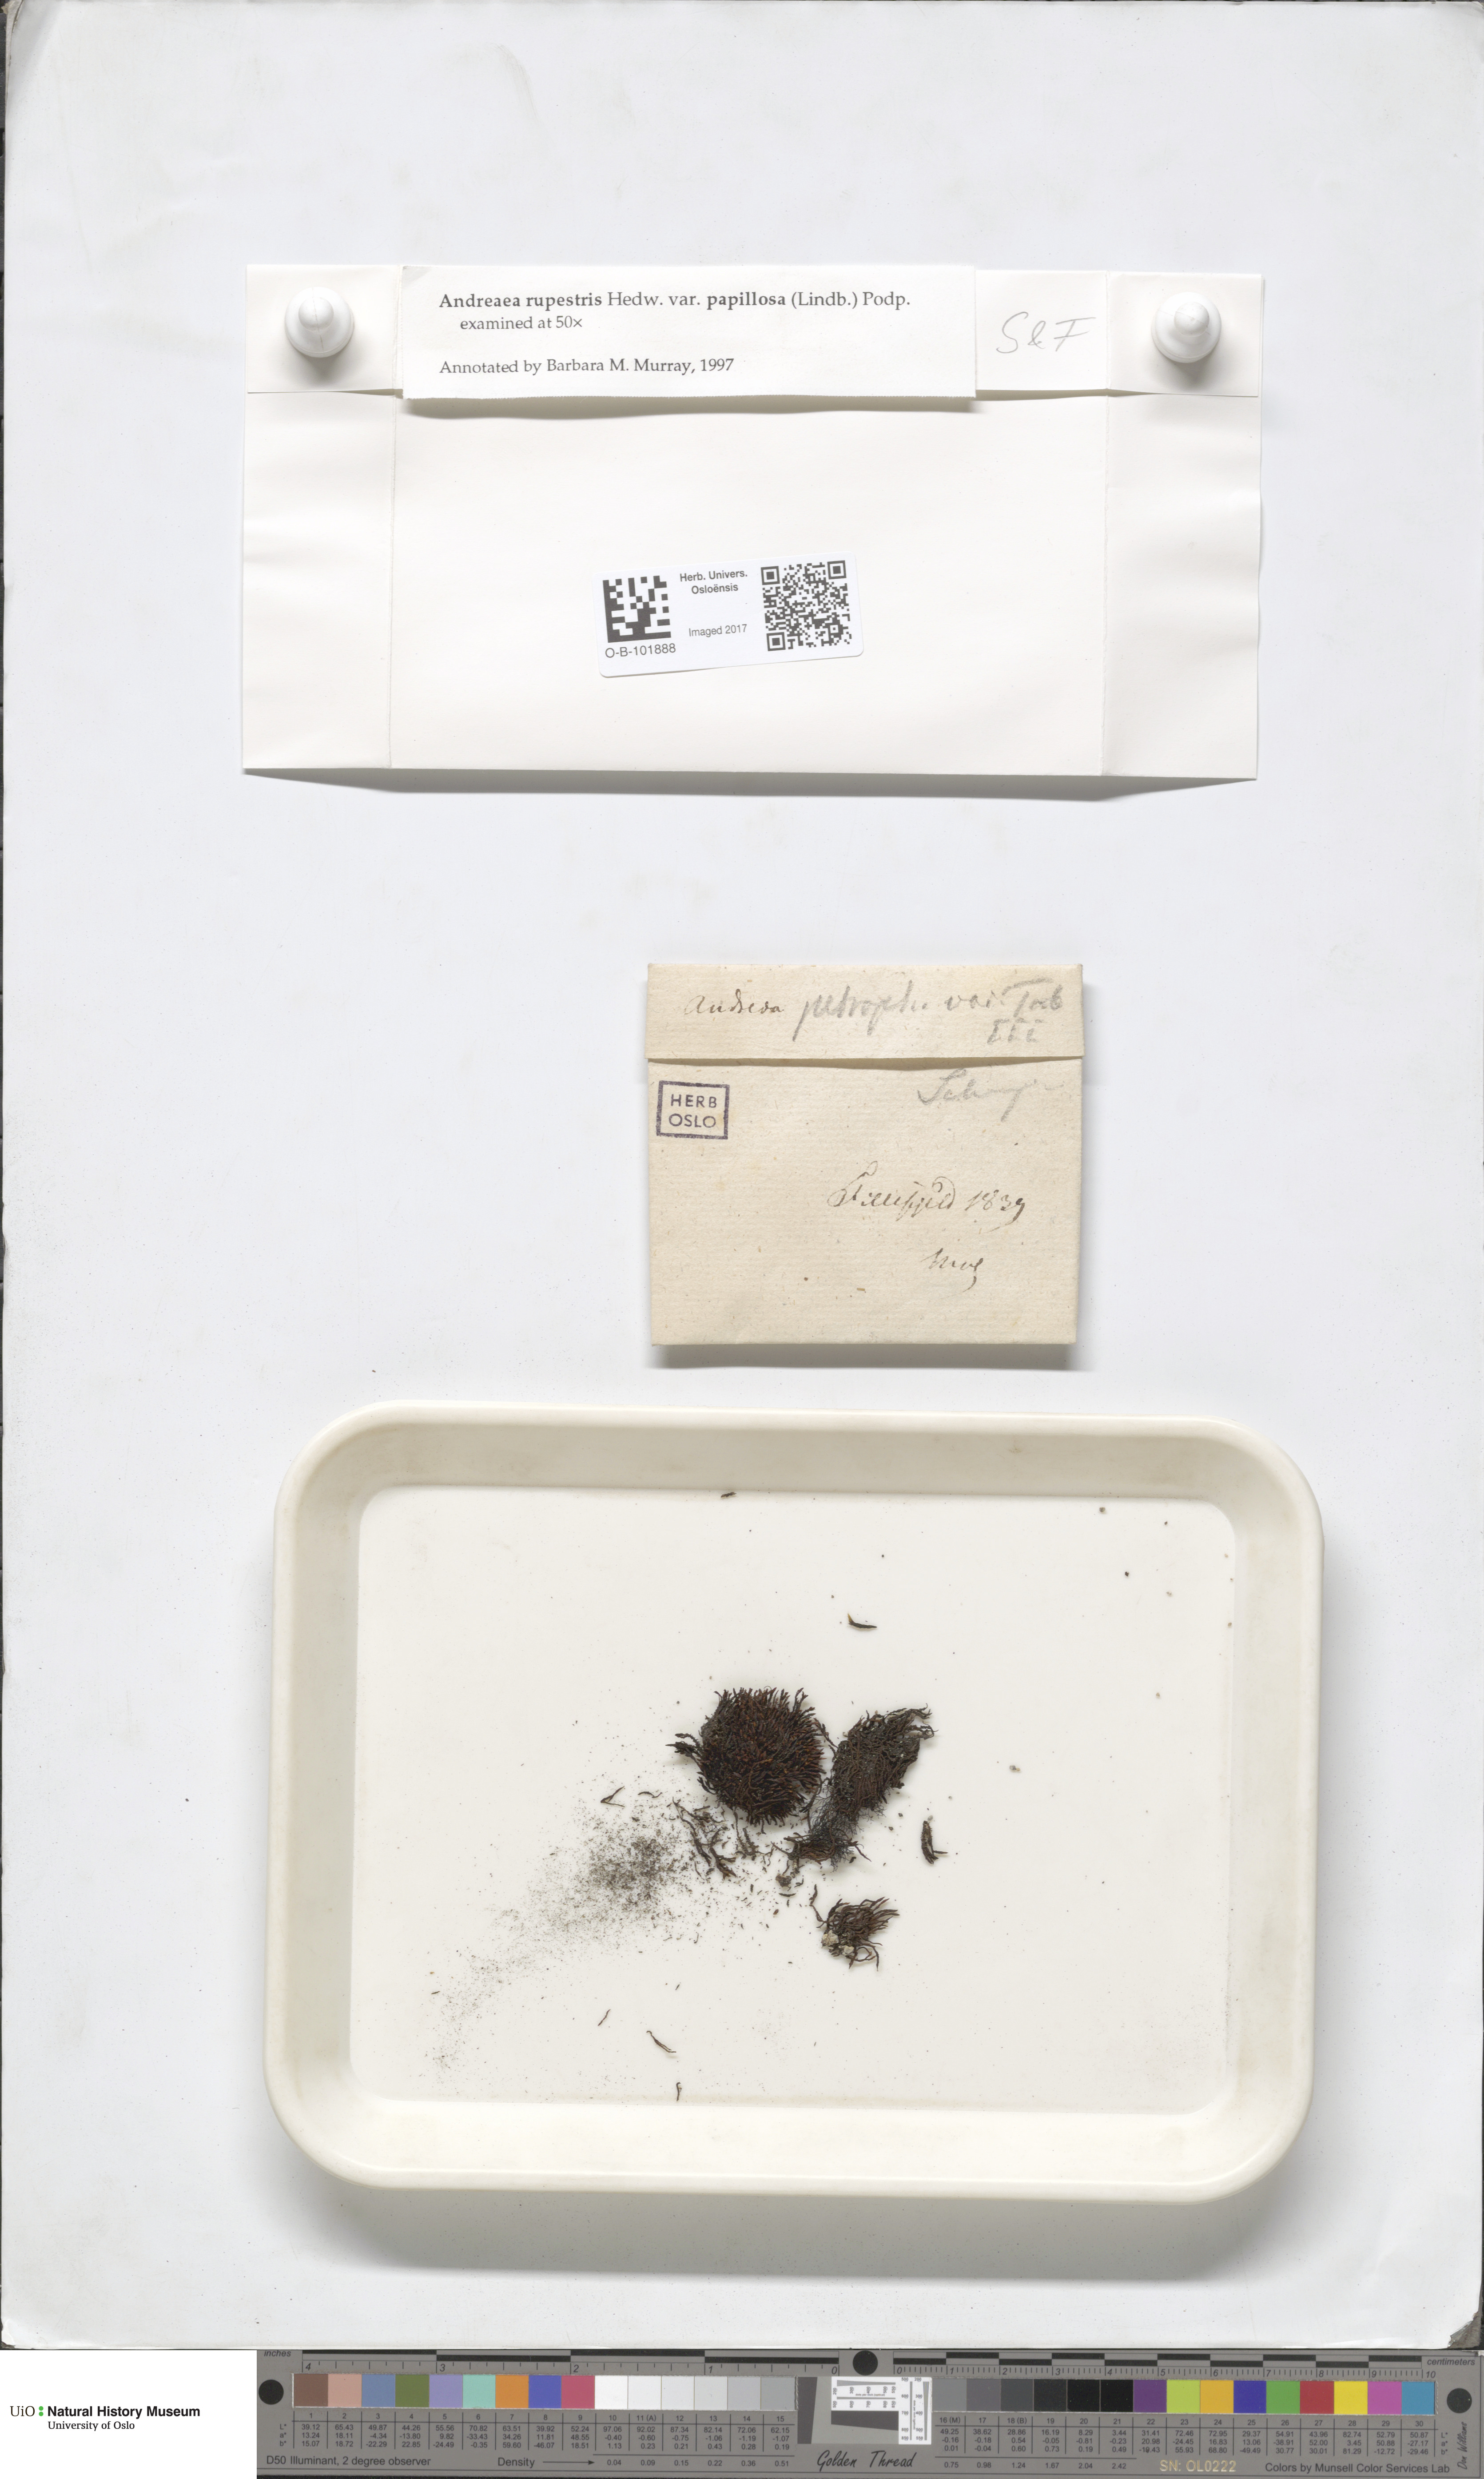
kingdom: Plantae
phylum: Bryophyta
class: Andreaeopsida
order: Andreaeales
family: Andreaeaceae
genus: Andreaea
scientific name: Andreaea rupestris
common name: Black rock moss
